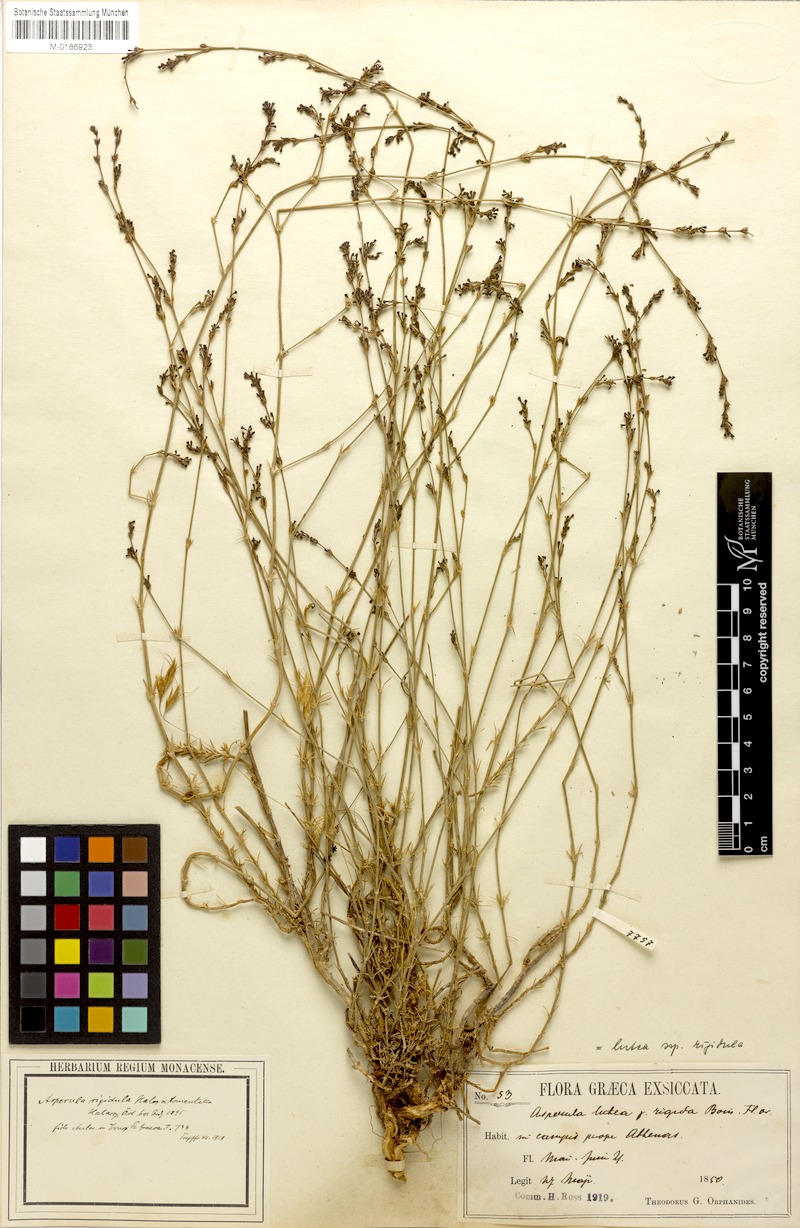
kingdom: Plantae
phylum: Tracheophyta
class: Magnoliopsida
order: Gentianales
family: Rubiaceae
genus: Cynanchica
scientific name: Cynanchica rigidula
